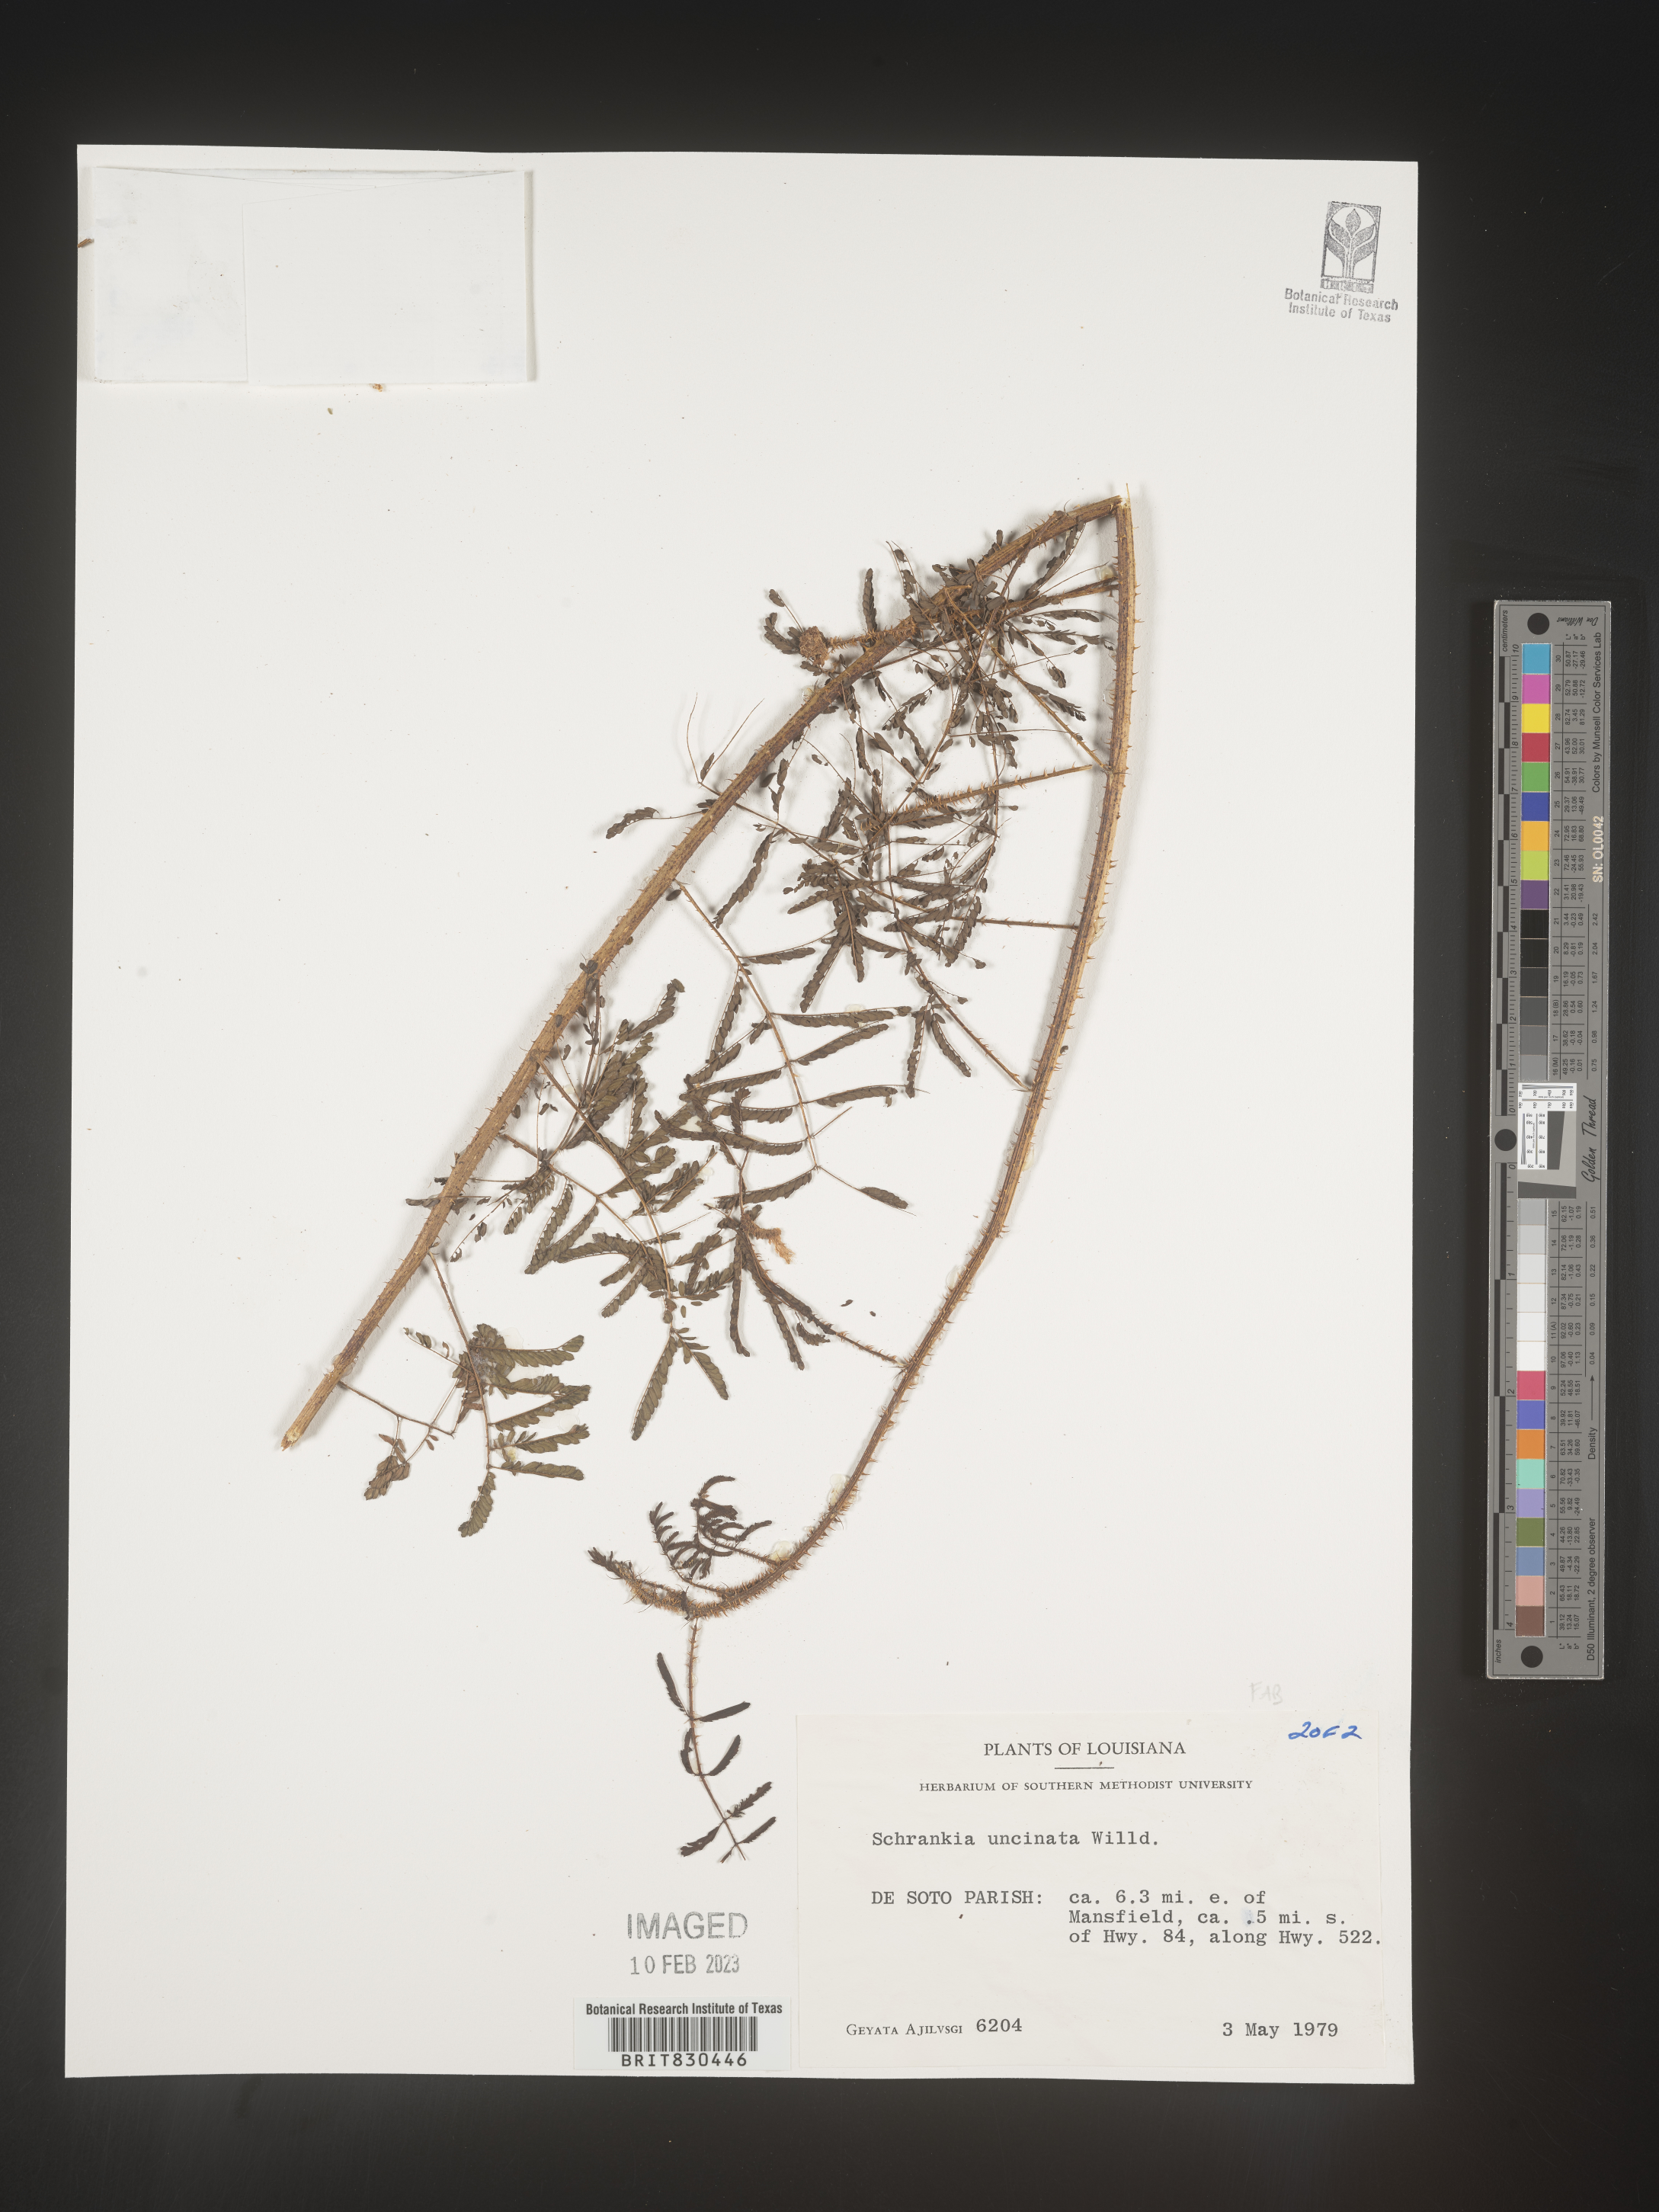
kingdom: Plantae
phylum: Tracheophyta
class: Magnoliopsida
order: Fabales
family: Fabaceae
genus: Mimosa
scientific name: Mimosa
